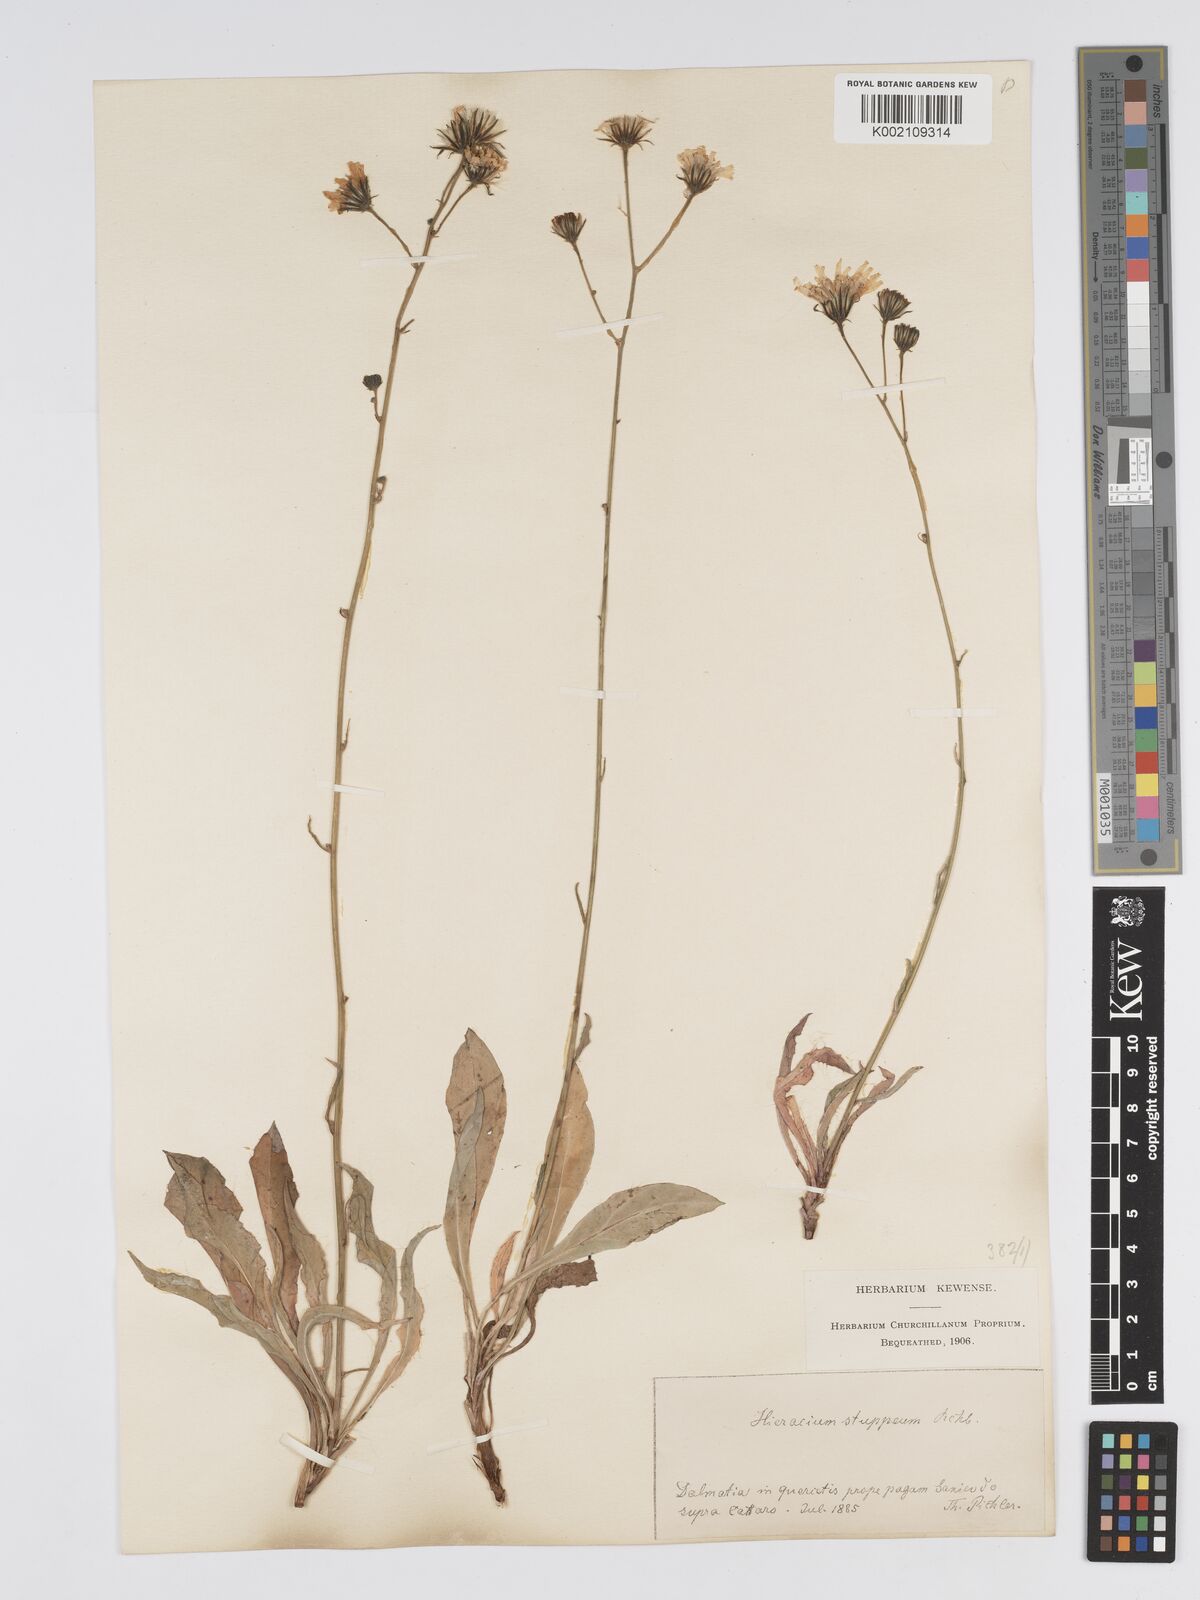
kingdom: Plantae
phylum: Tracheophyta
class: Magnoliopsida
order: Asterales
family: Asteraceae
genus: Hieracium
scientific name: Hieracium heterogynum
